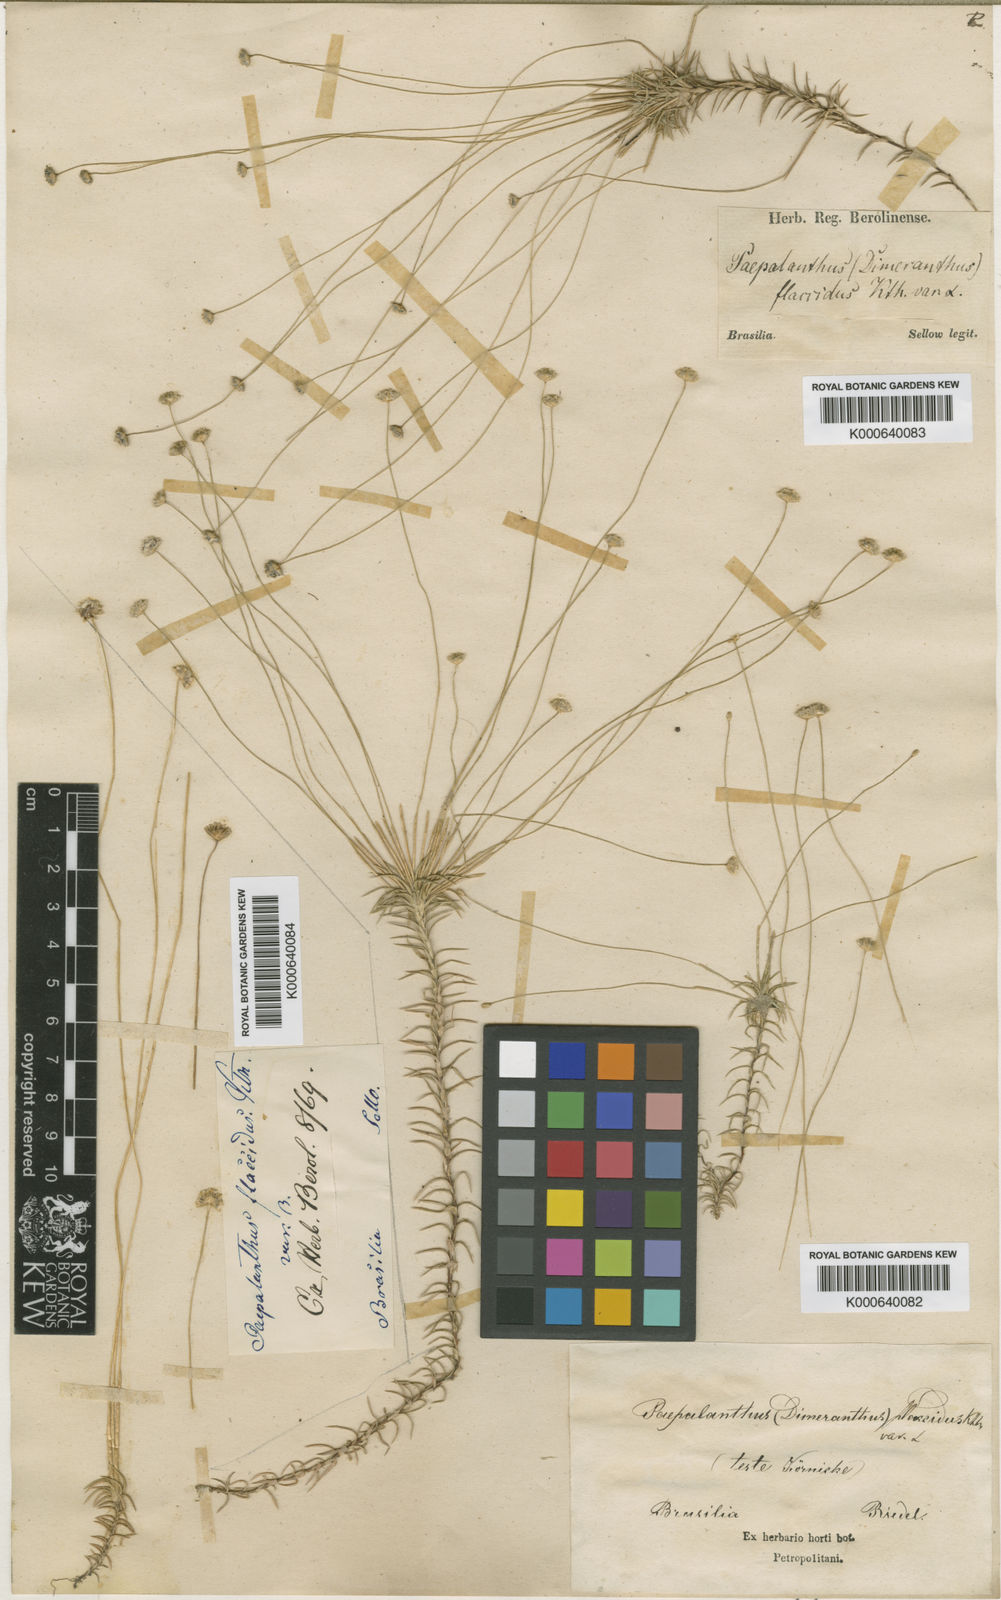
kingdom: Plantae
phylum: Tracheophyta
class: Liliopsida
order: Poales
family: Eriocaulaceae
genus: Paepalanthus
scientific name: Paepalanthus flaccidus
